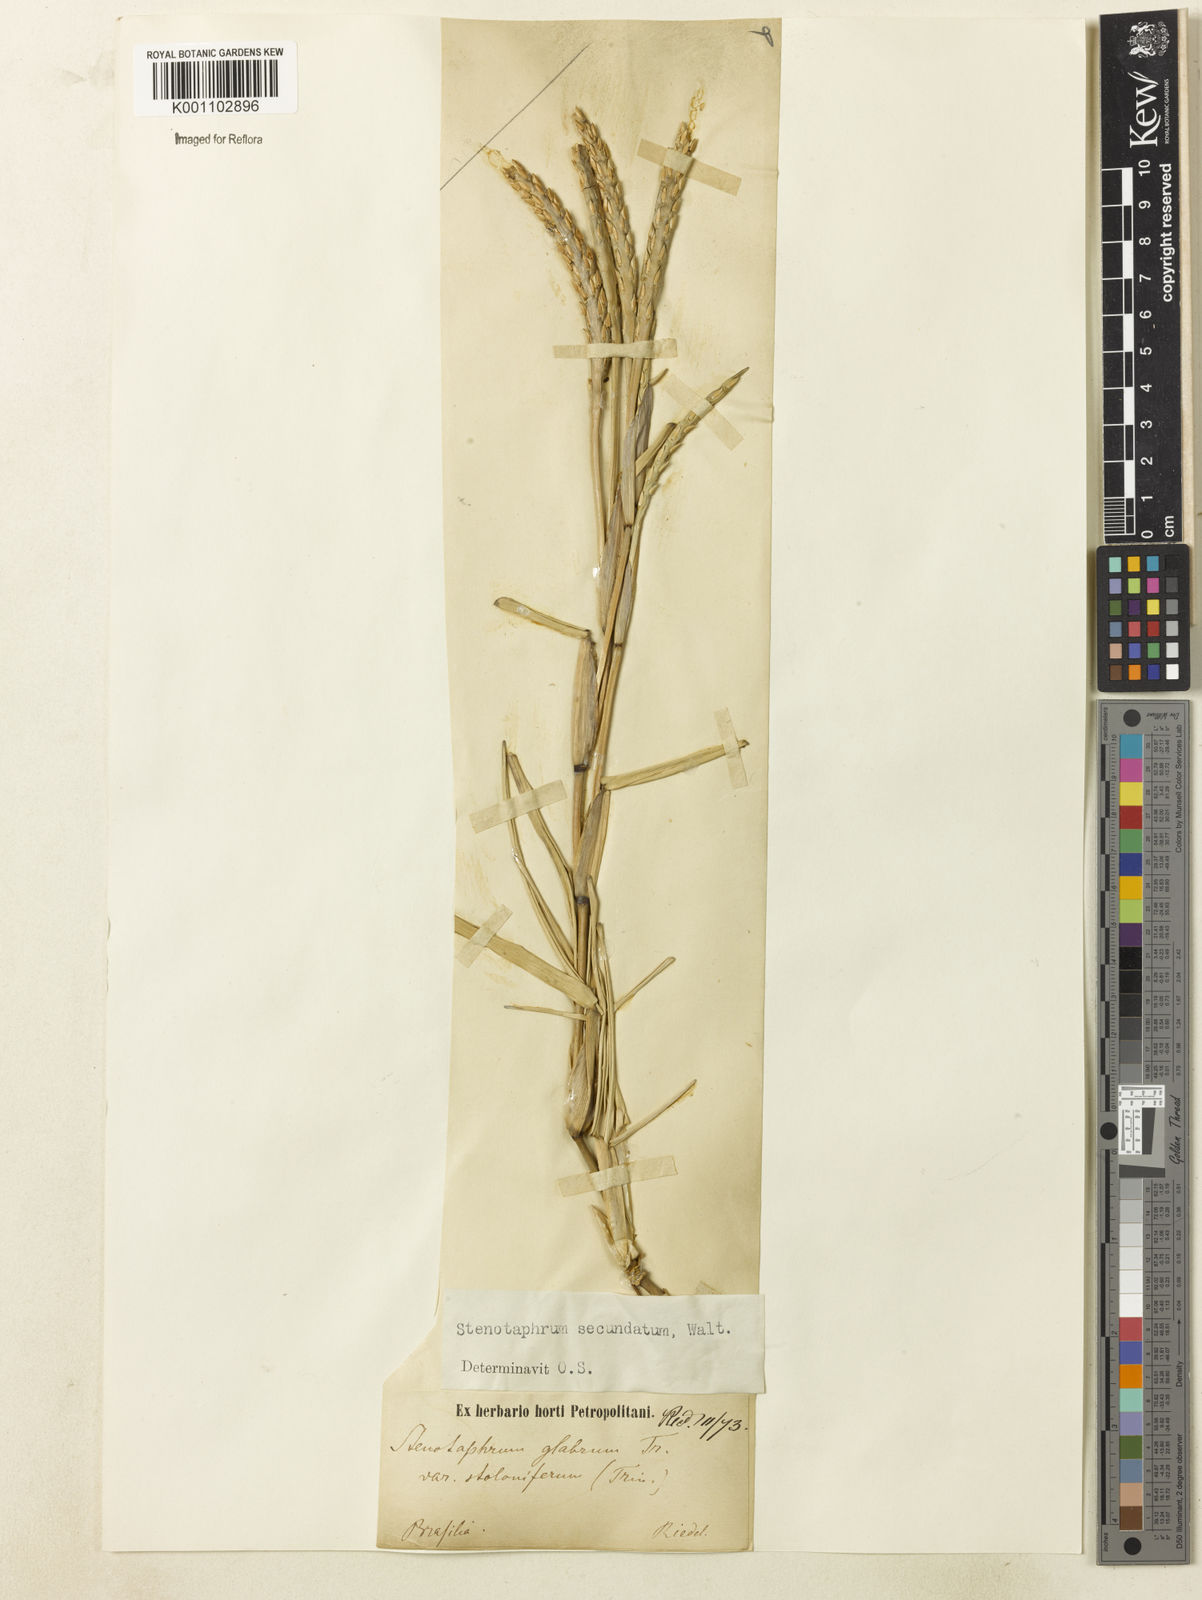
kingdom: Plantae
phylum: Tracheophyta
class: Liliopsida
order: Poales
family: Poaceae
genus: Stenotaphrum
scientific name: Stenotaphrum secundatum
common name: St. augustine grass
